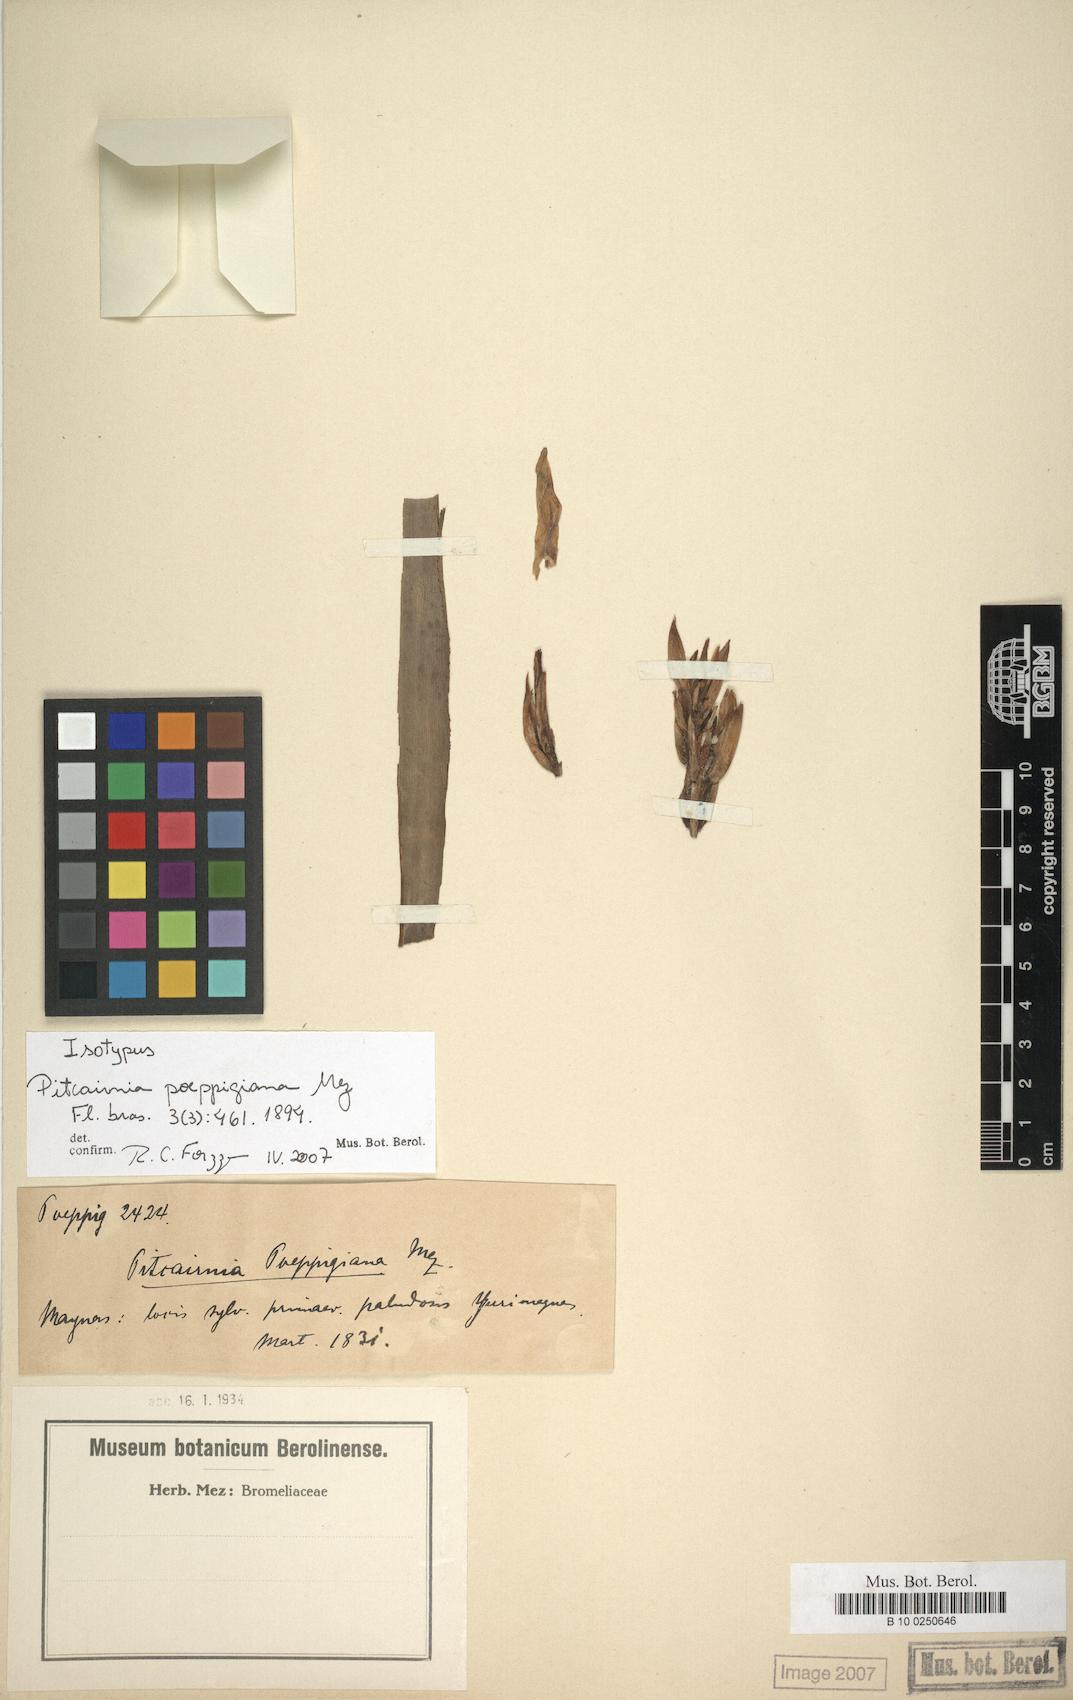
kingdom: Plantae
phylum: Tracheophyta
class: Liliopsida
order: Poales
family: Bromeliaceae
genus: Pitcairnia
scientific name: Pitcairnia poeppigiana
